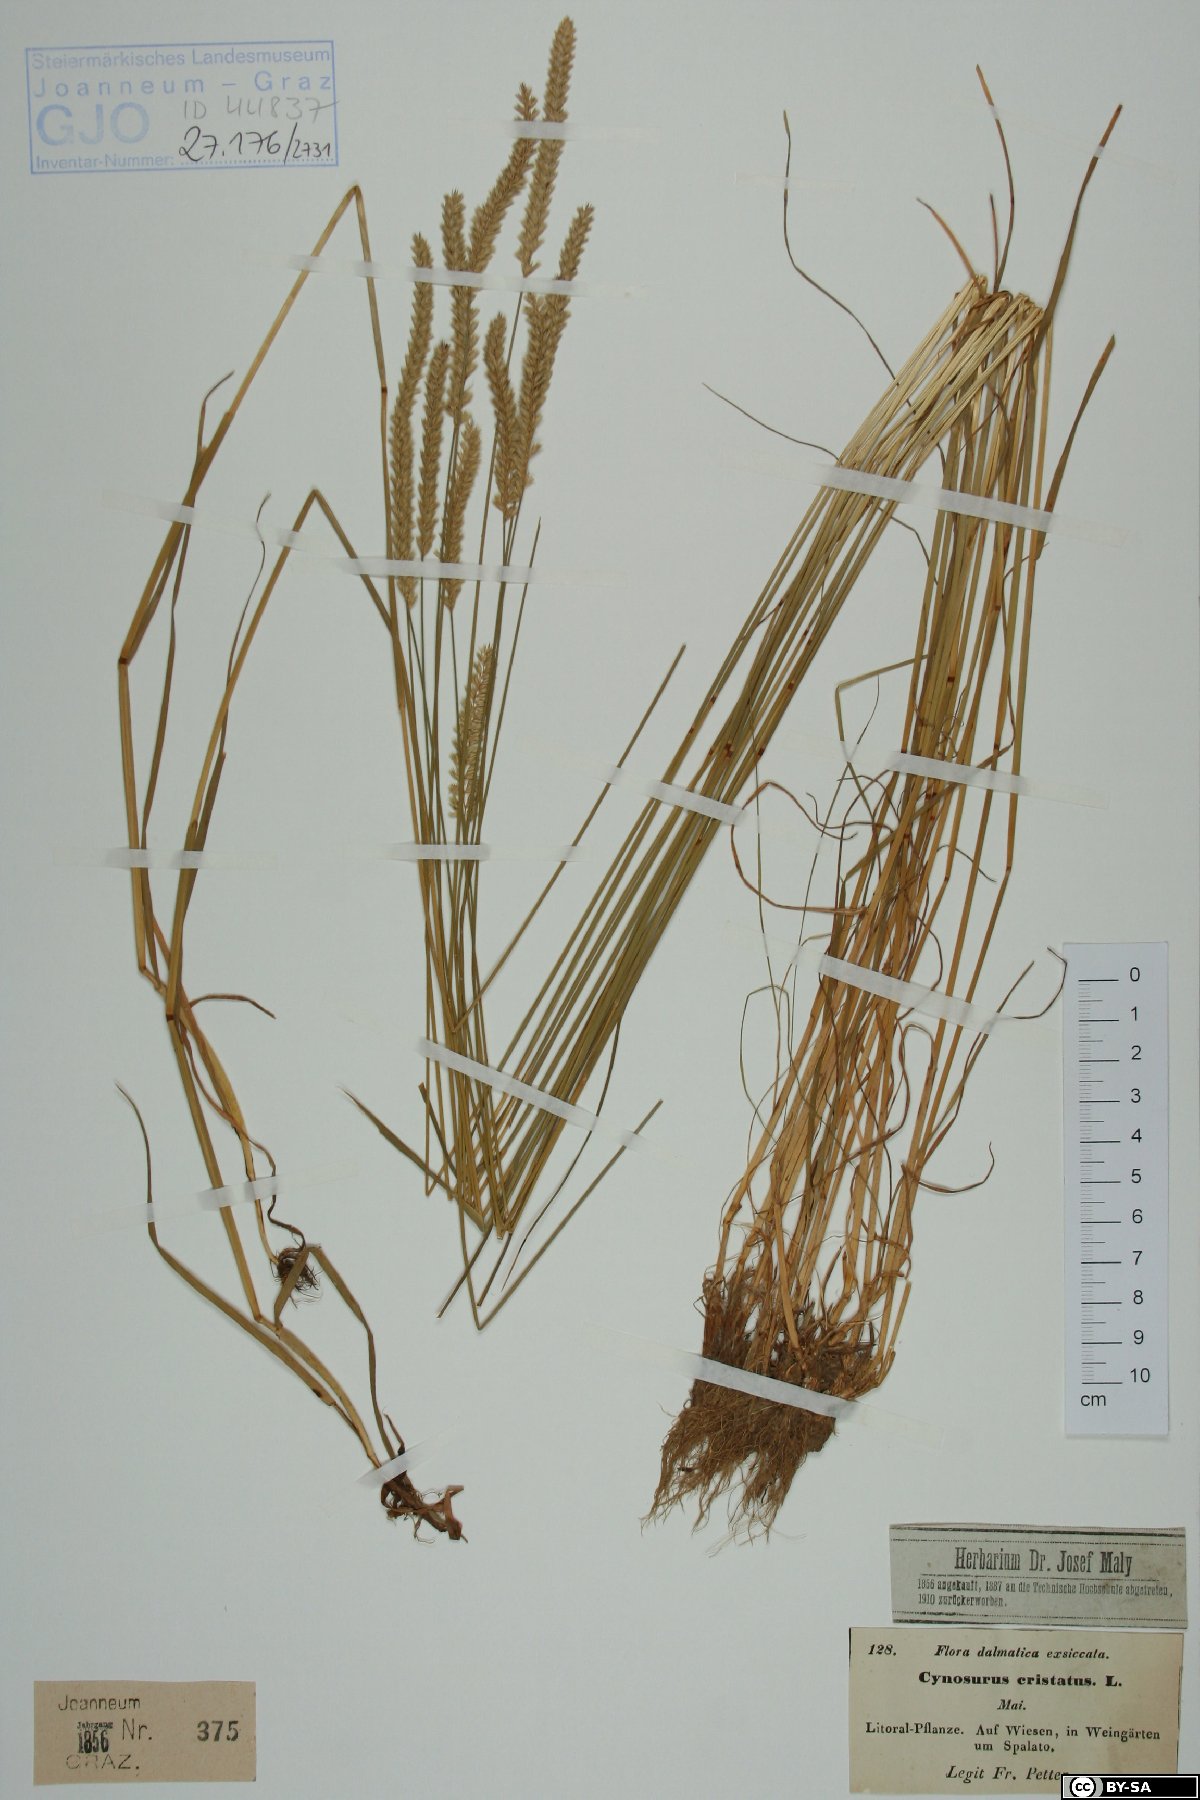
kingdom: Plantae
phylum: Tracheophyta
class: Liliopsida
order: Poales
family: Poaceae
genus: Cynosurus
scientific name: Cynosurus cristatus
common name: Crested dog's-tail
